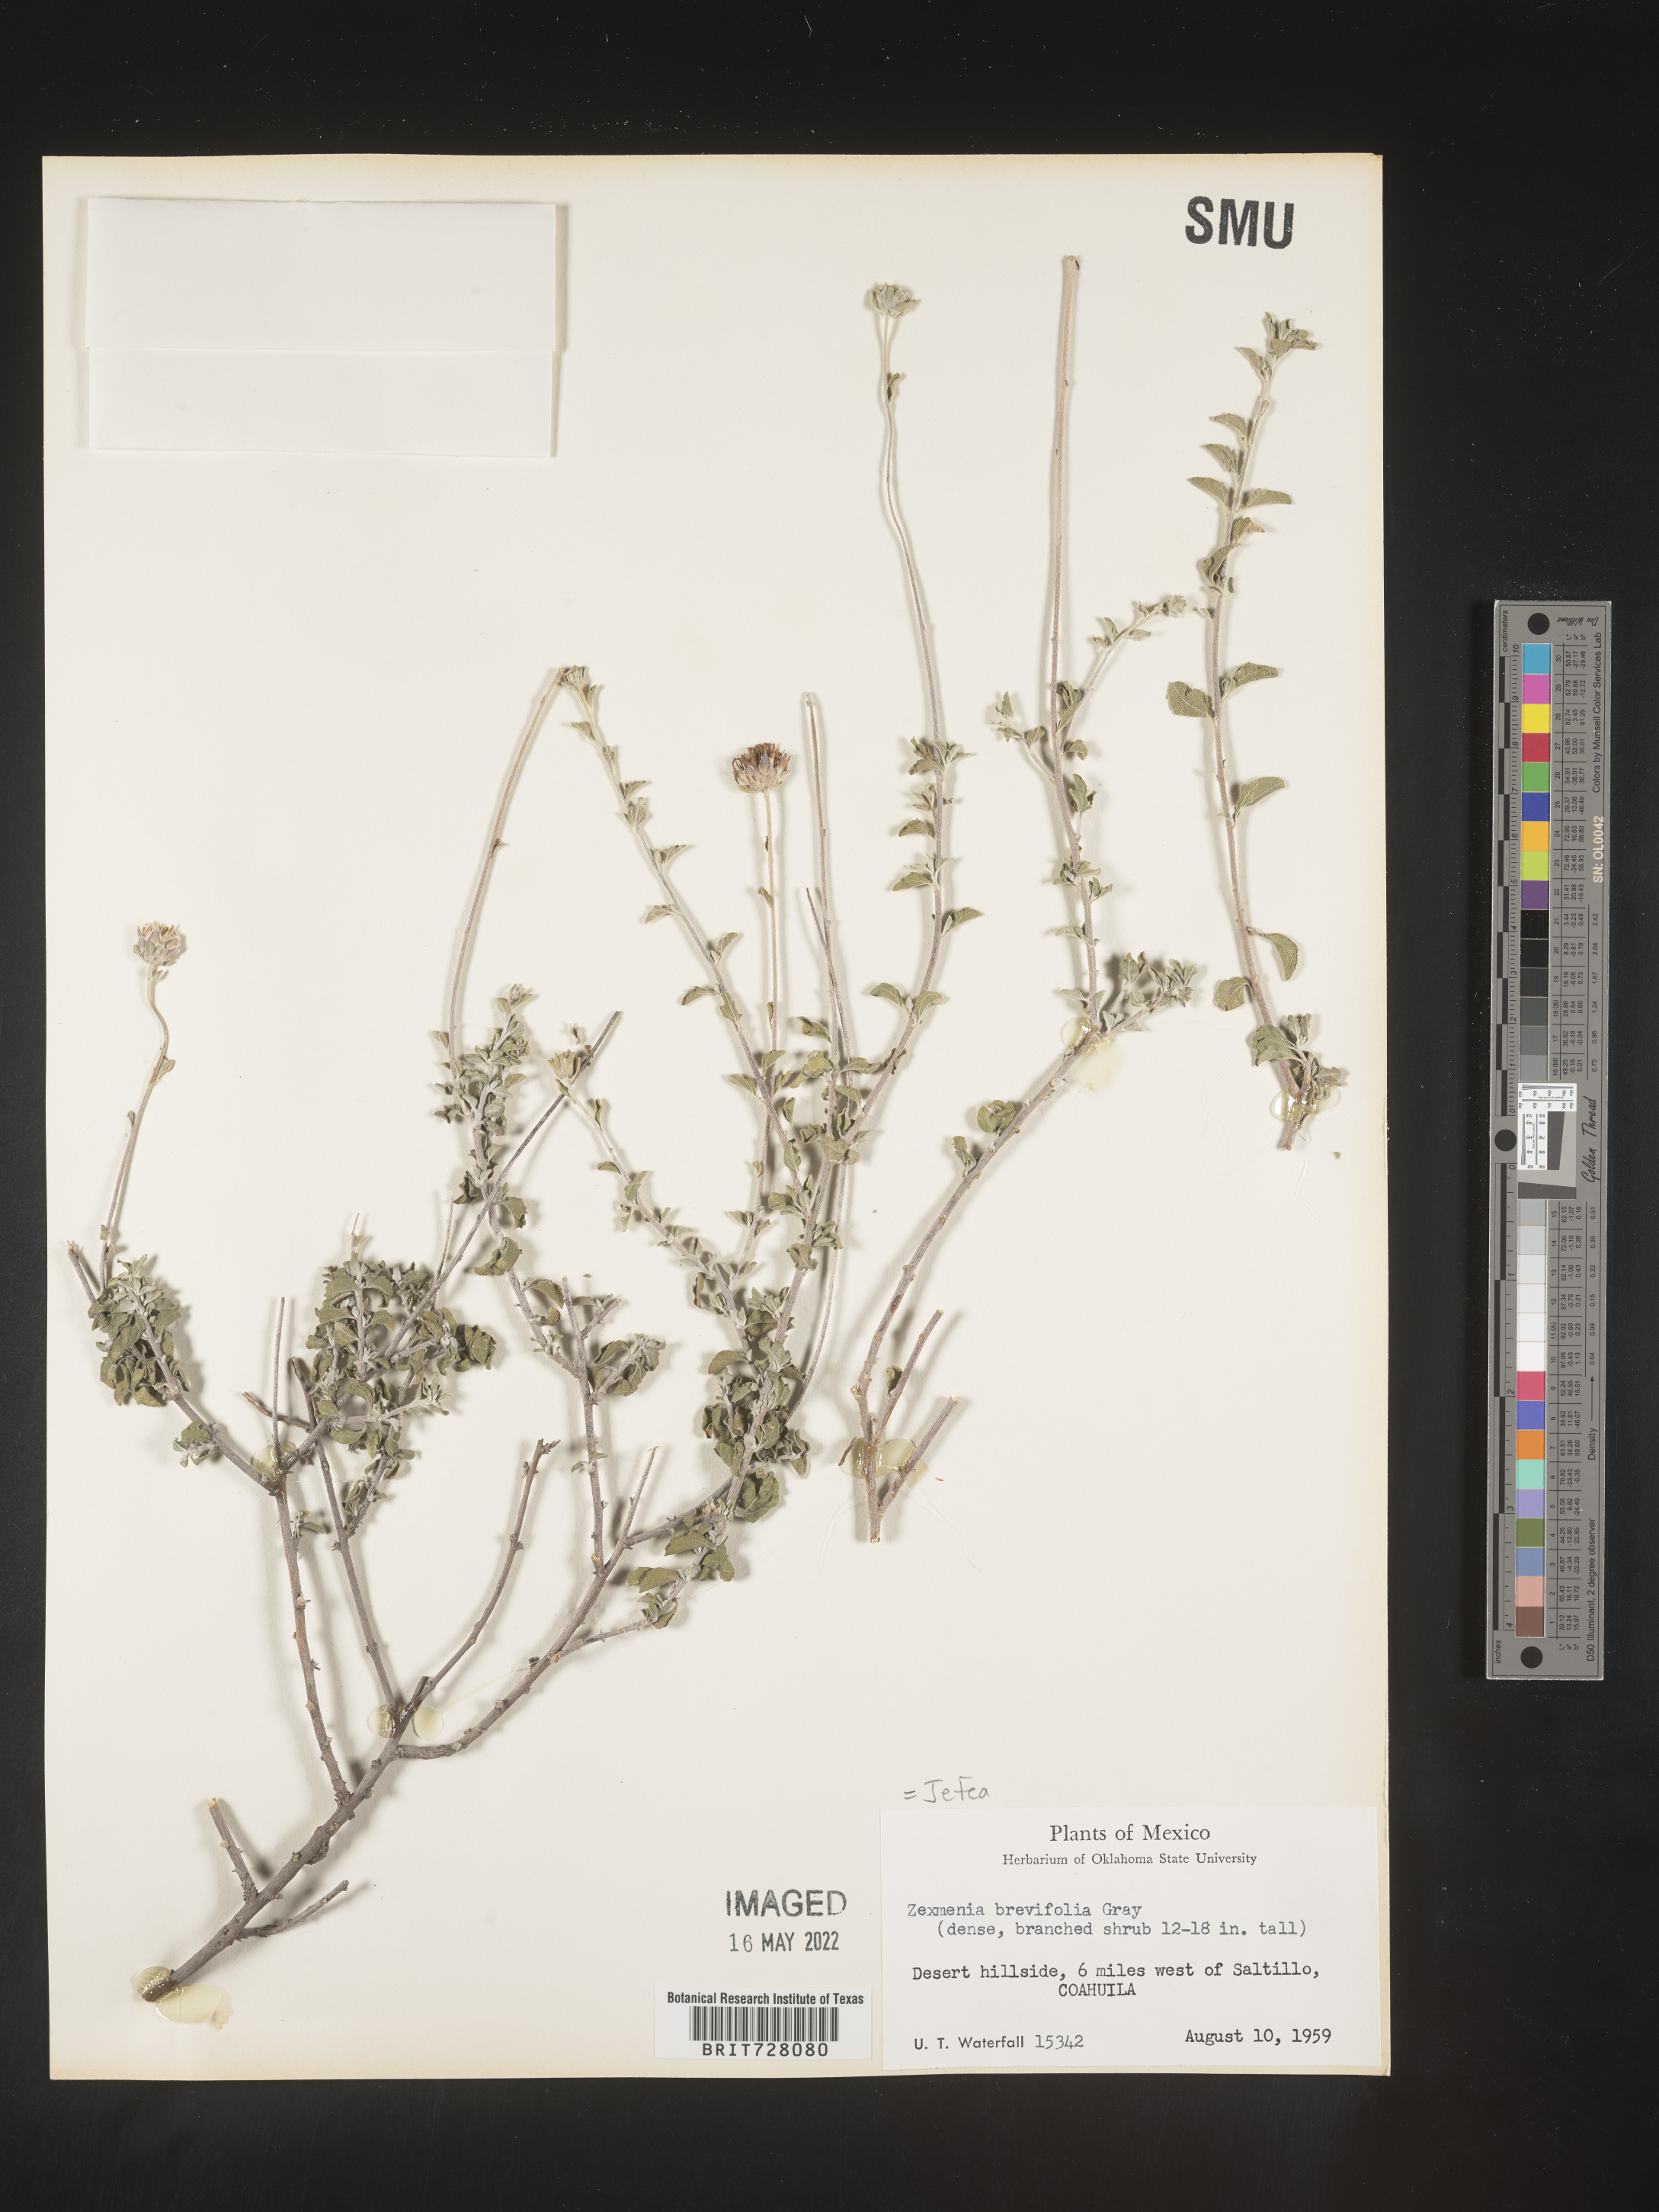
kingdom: Plantae
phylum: Tracheophyta
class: Magnoliopsida
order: Asterales
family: Asteraceae
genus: Jefea
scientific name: Jefea brevifolia
